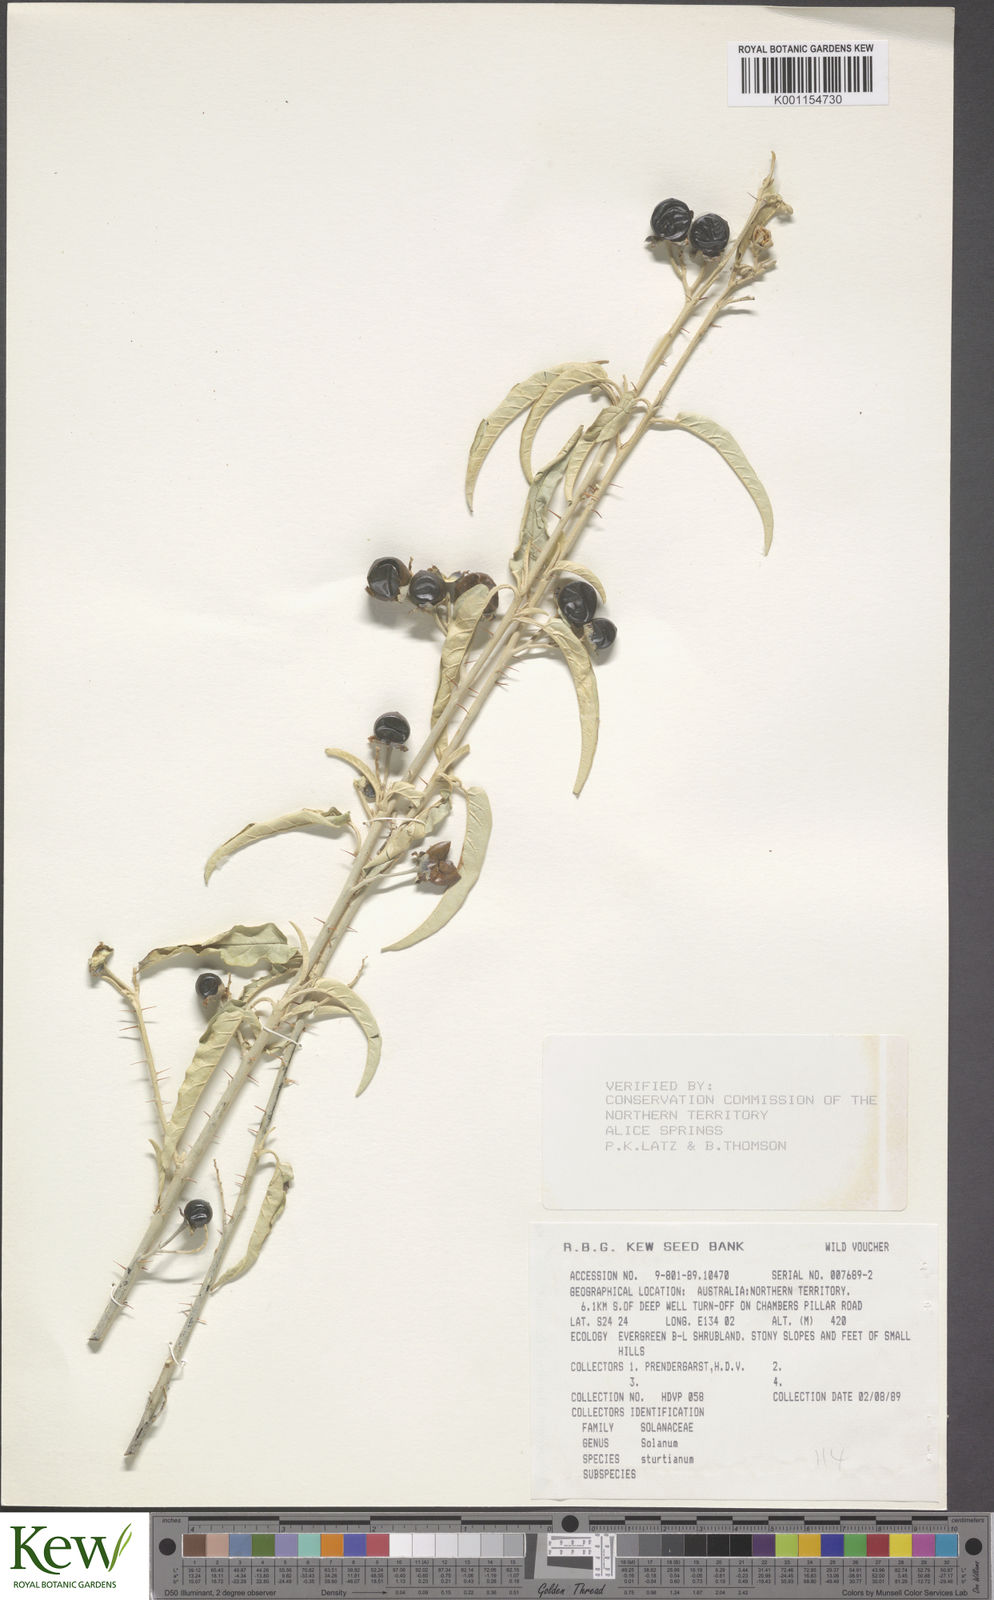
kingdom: Plantae
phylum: Tracheophyta
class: Magnoliopsida
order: Solanales
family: Solanaceae
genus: Solanum
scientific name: Solanum sturtianum
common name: Thargomindah nightshade
